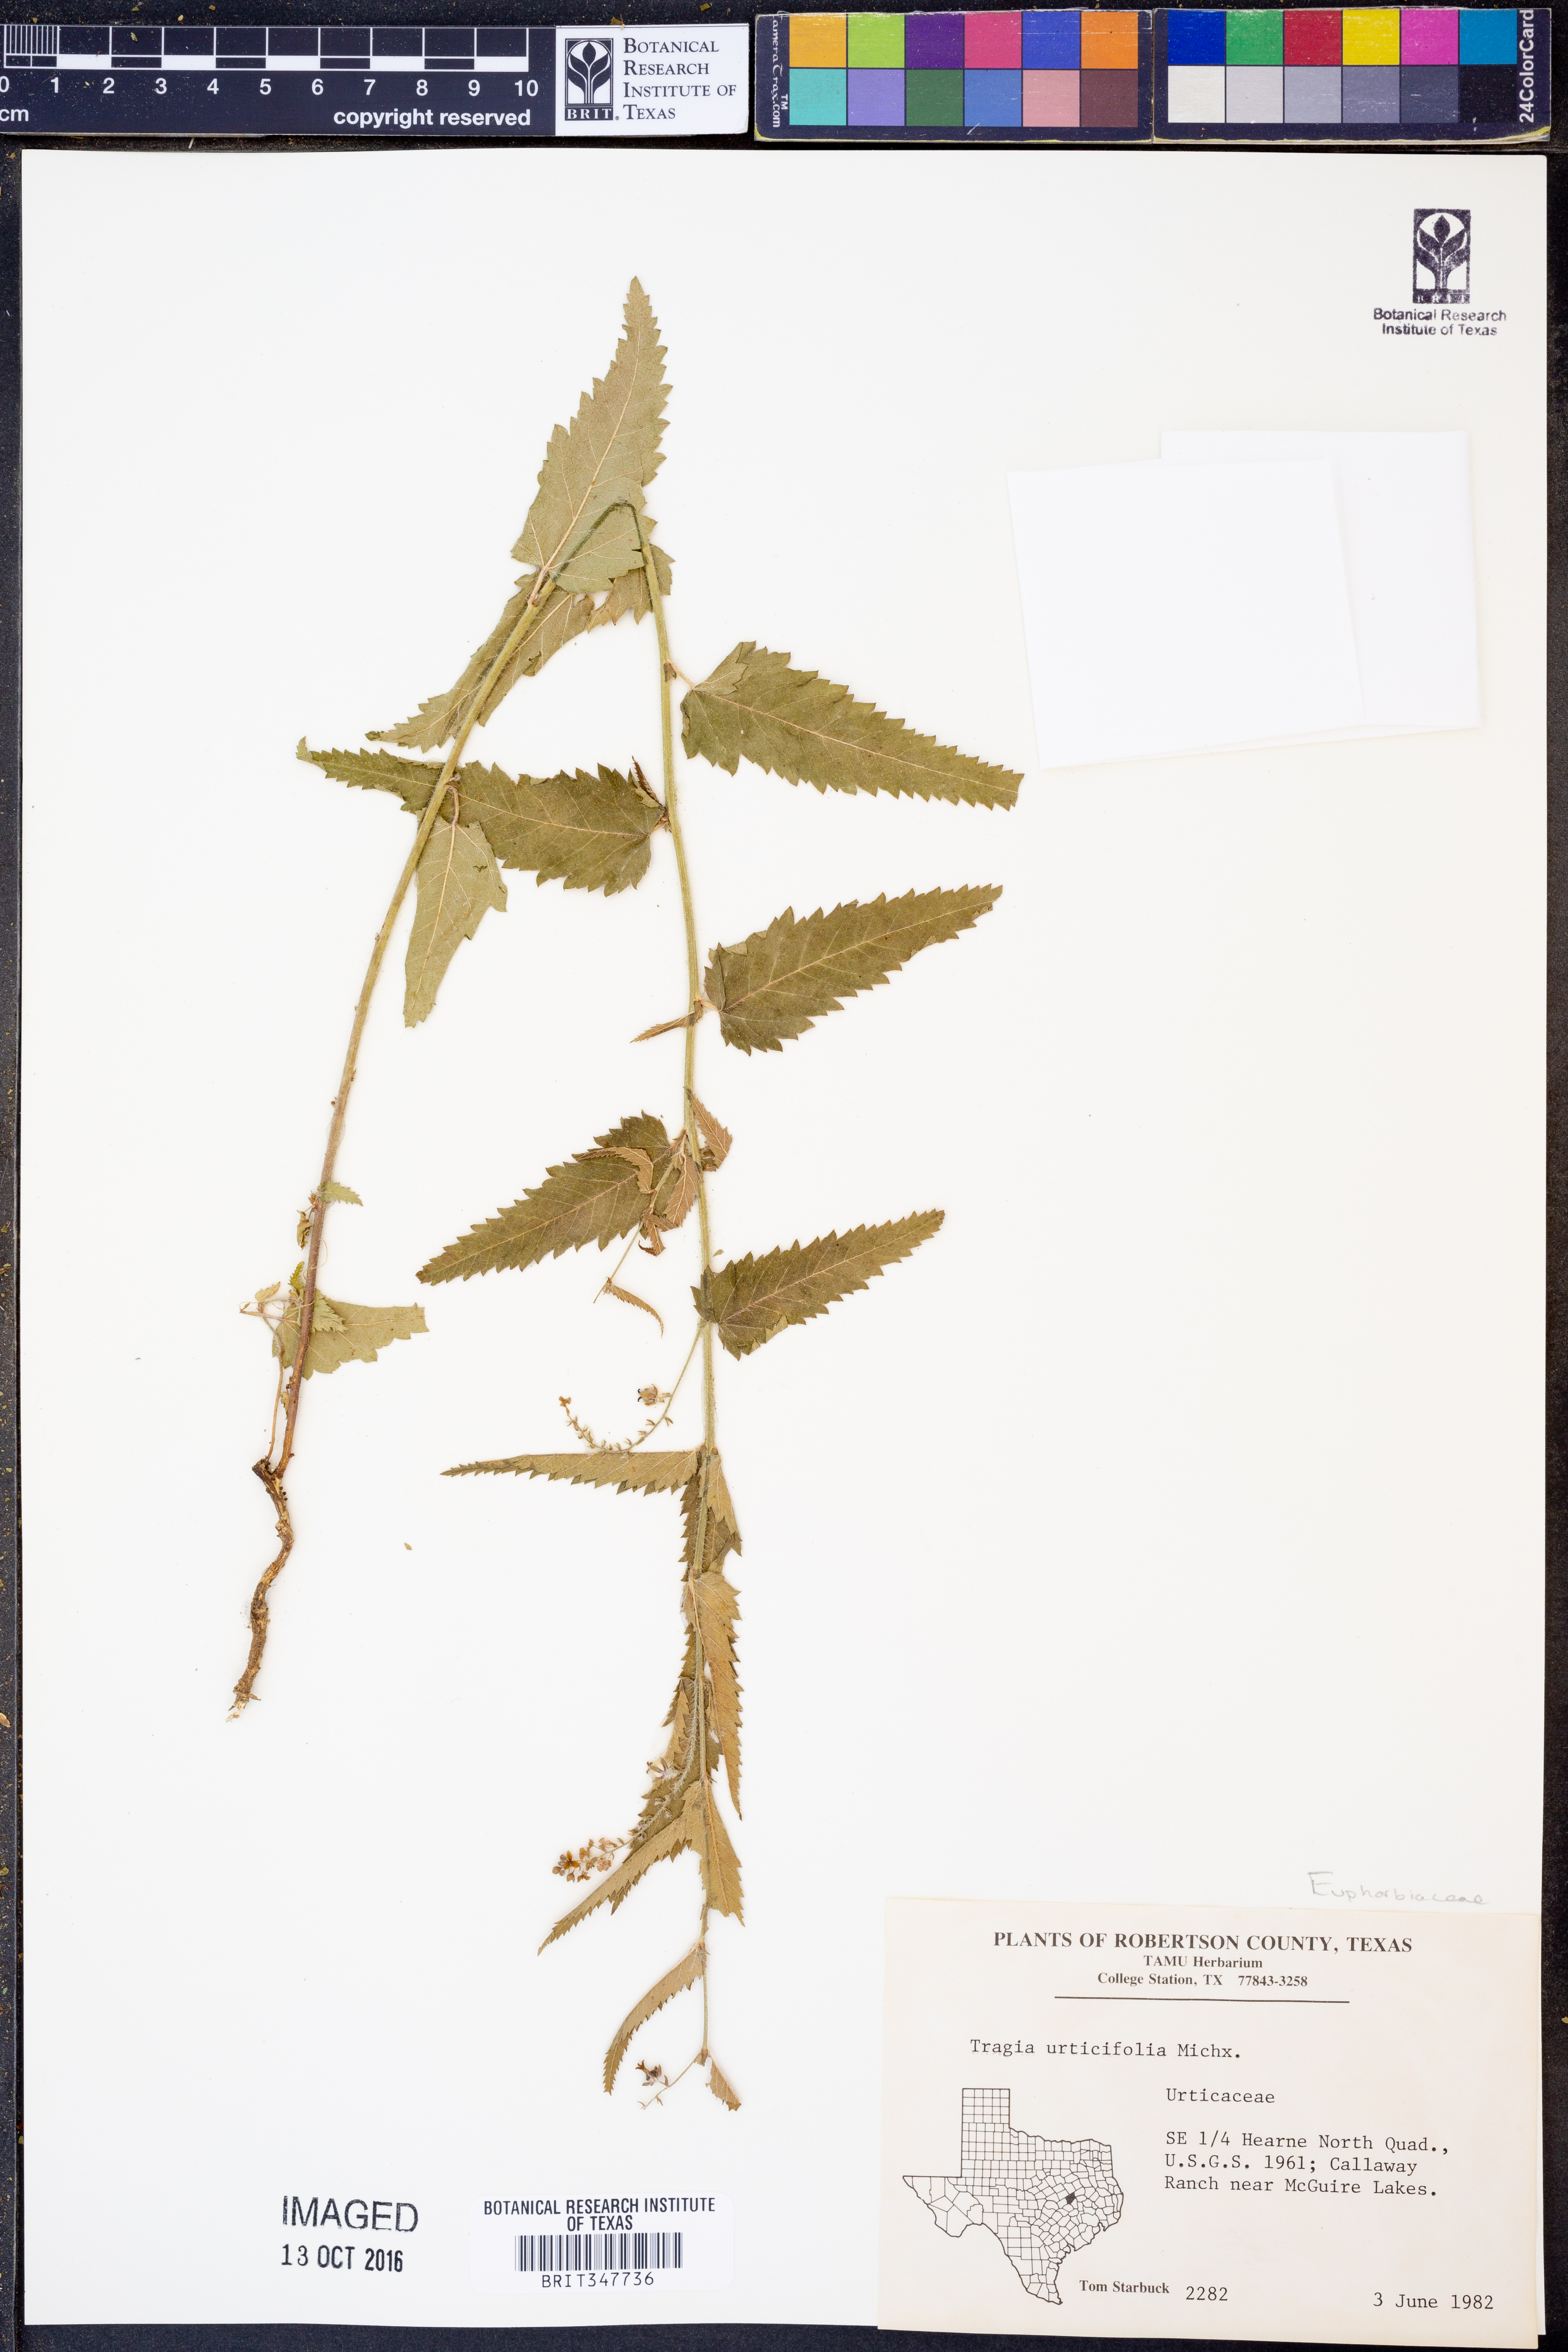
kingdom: Plantae
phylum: Tracheophyta
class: Magnoliopsida
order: Malpighiales
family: Euphorbiaceae
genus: Tragia
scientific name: Tragia urticifolia
